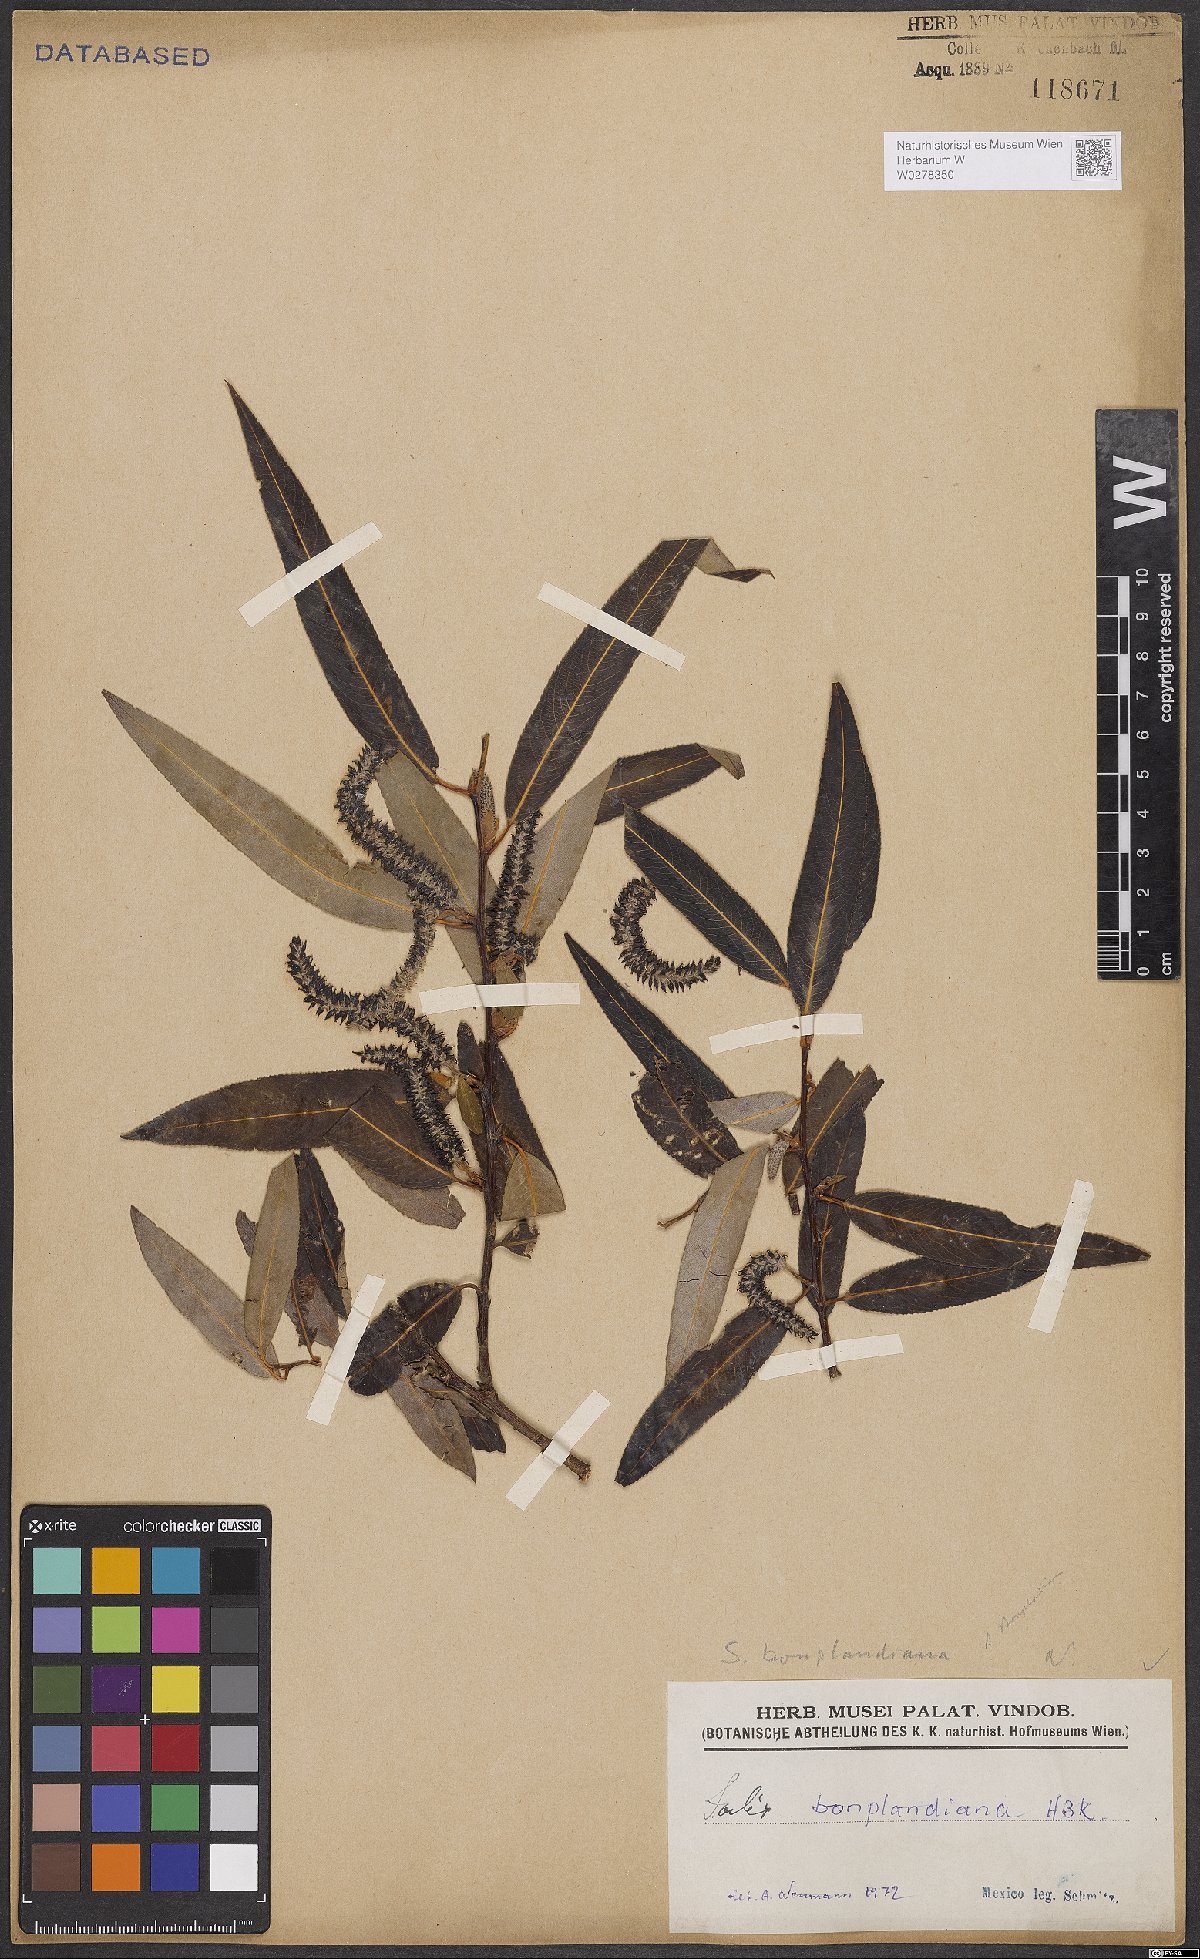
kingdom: Plantae
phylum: Tracheophyta
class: Magnoliopsida
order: Malpighiales
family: Salicaceae
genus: Salix
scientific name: Salix bonplandiana
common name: Bonpland’s willow
